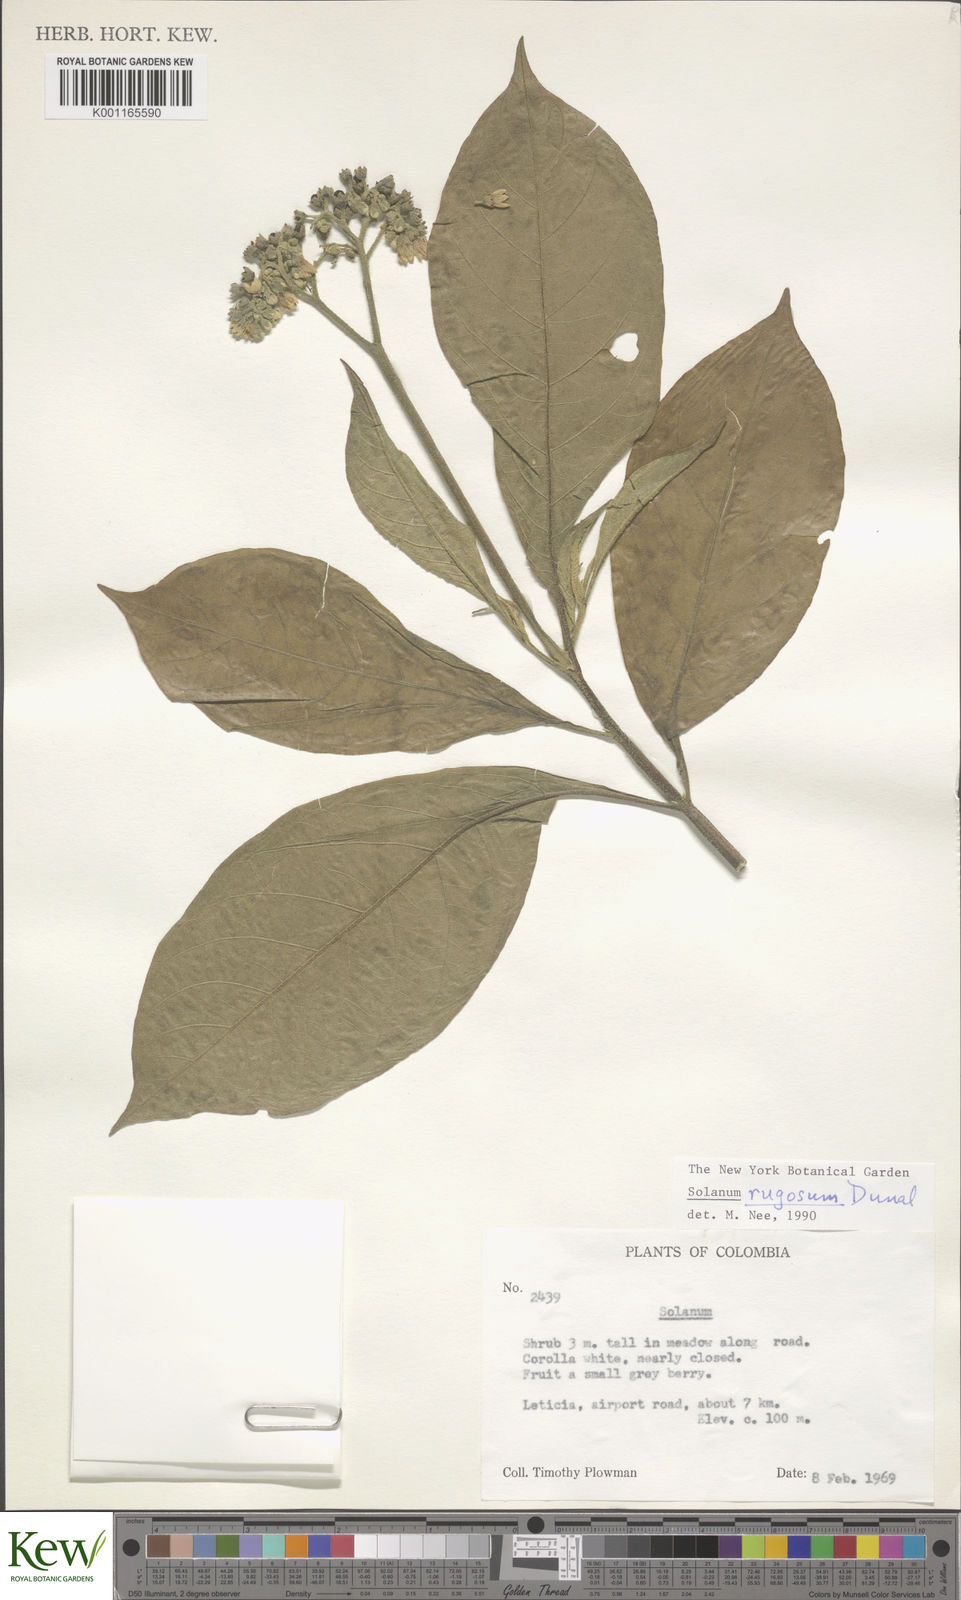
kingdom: Plantae
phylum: Tracheophyta
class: Magnoliopsida
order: Solanales
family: Solanaceae
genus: Solanum
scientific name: Solanum rugosum
